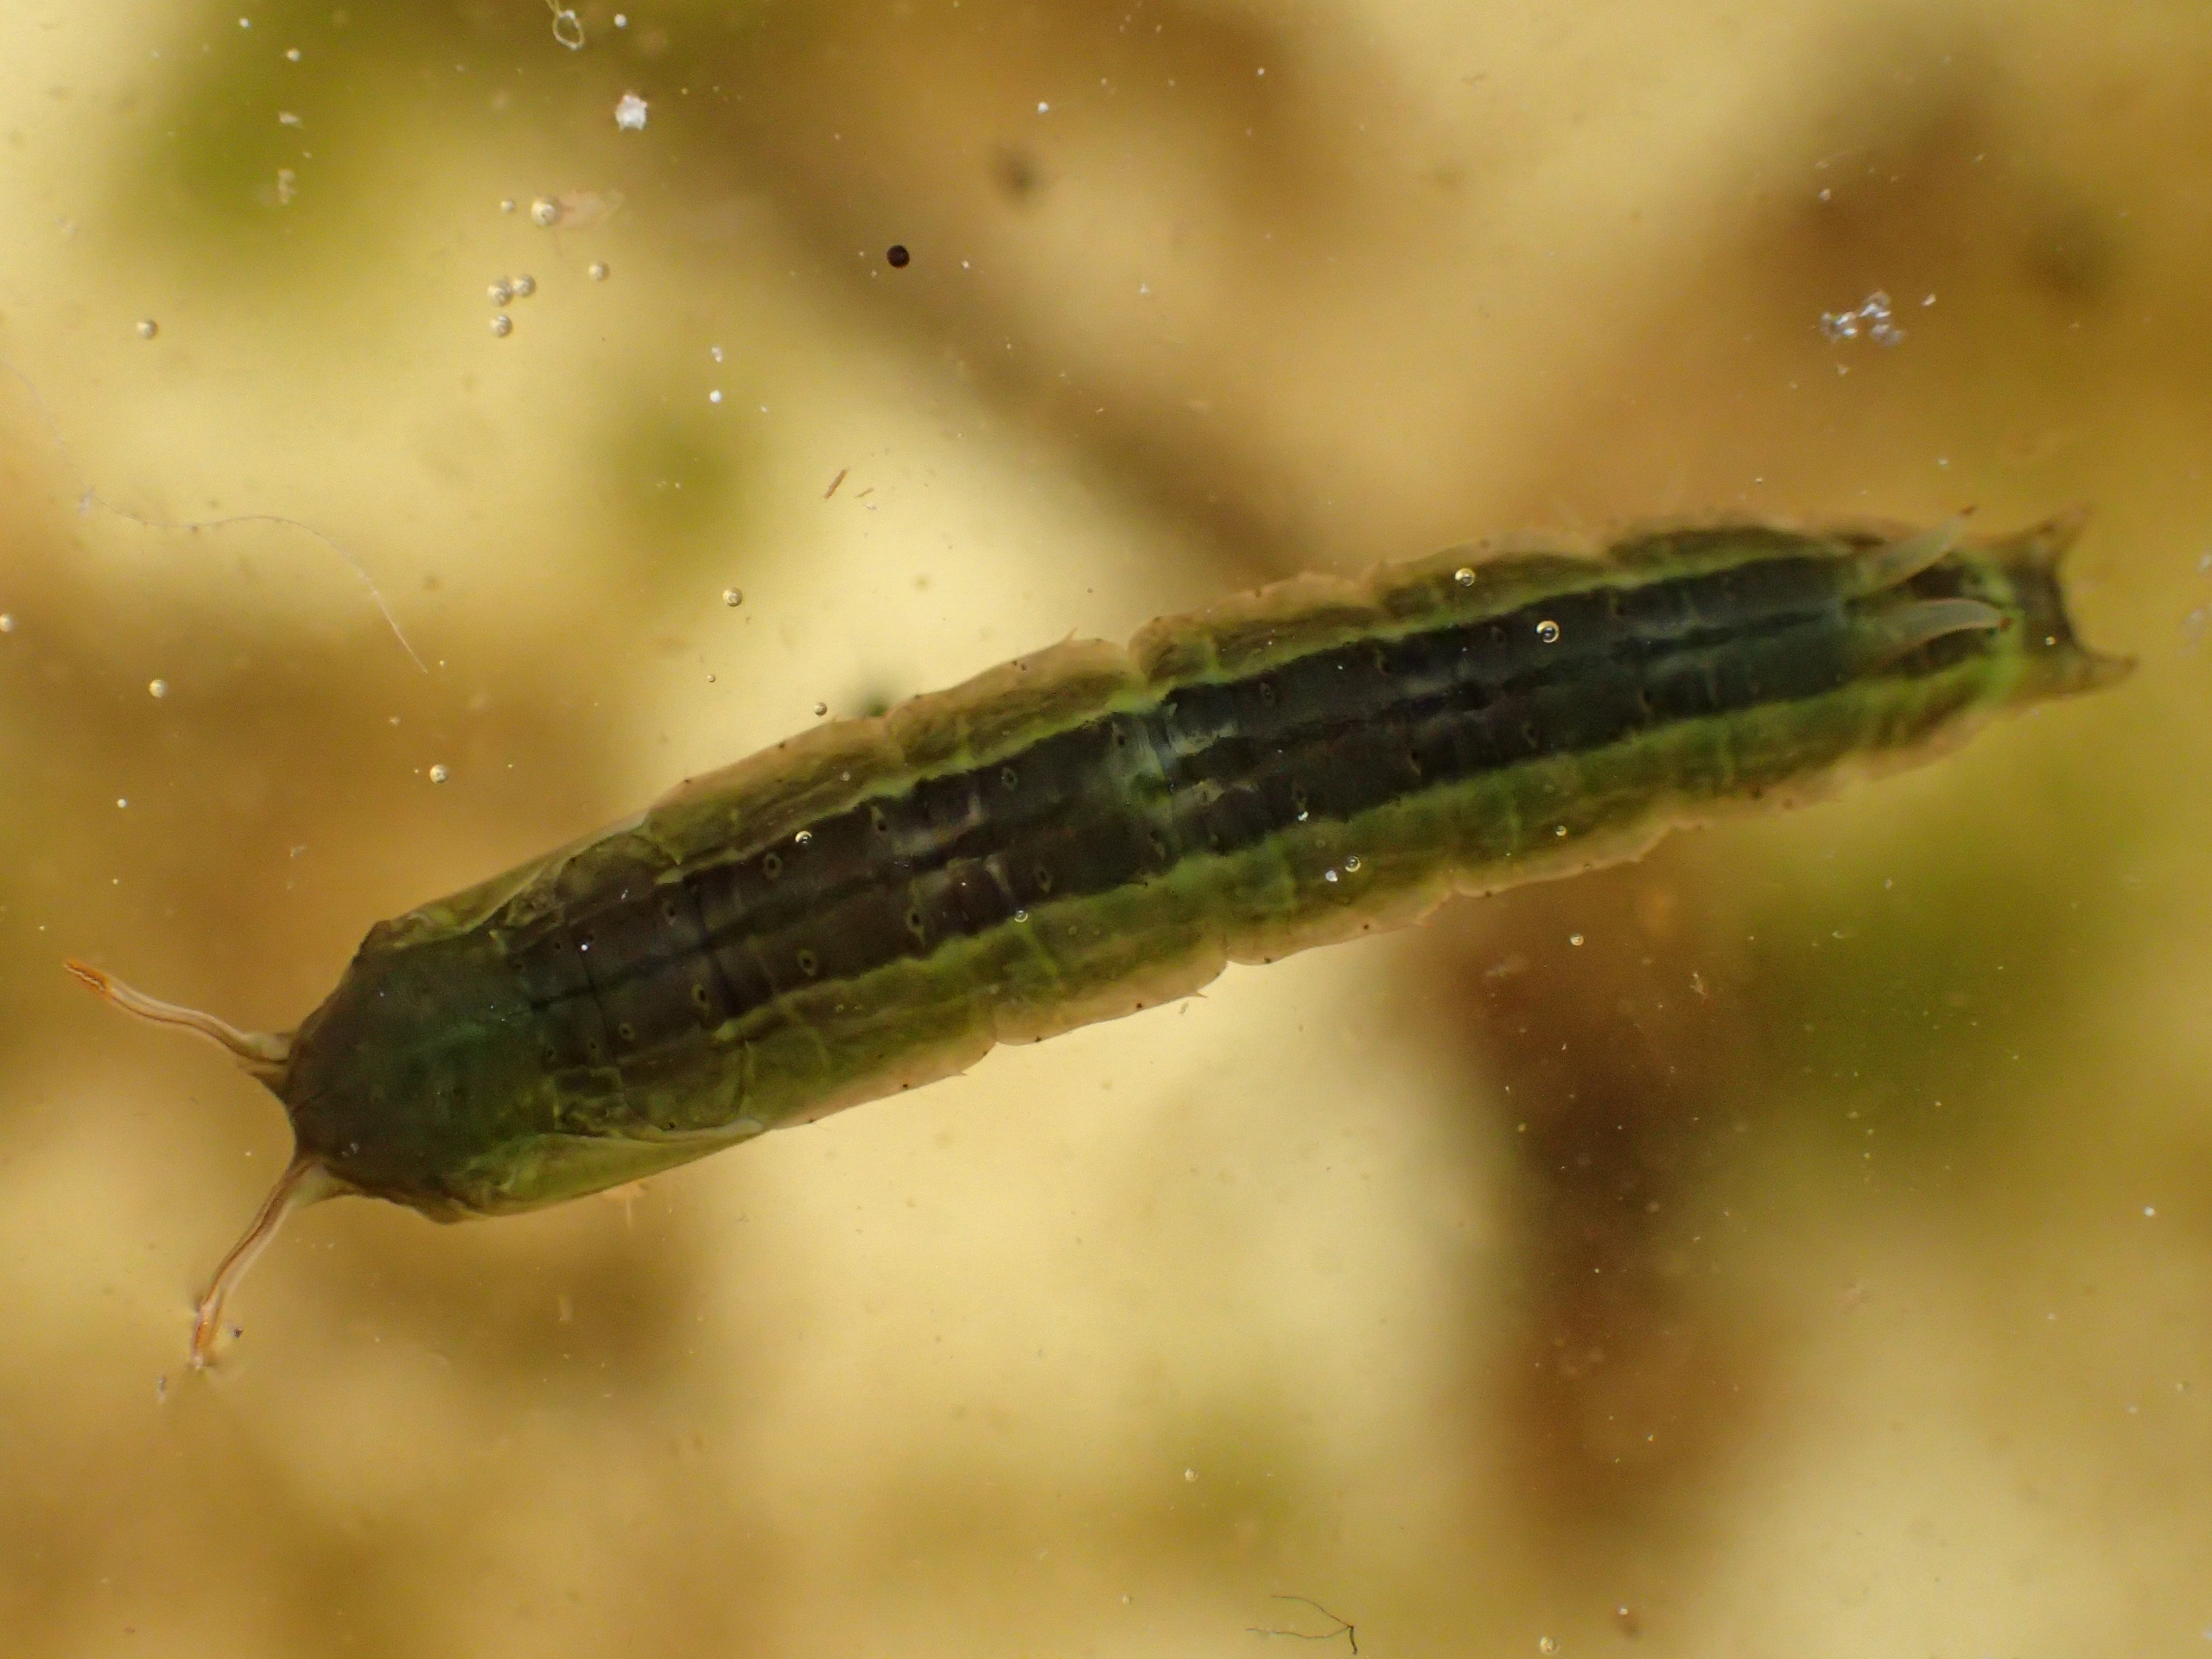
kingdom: Animalia
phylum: Arthropoda
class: Insecta
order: Diptera
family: Cylindrotomidae
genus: Phalacrocera
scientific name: Phalacrocera replicata
